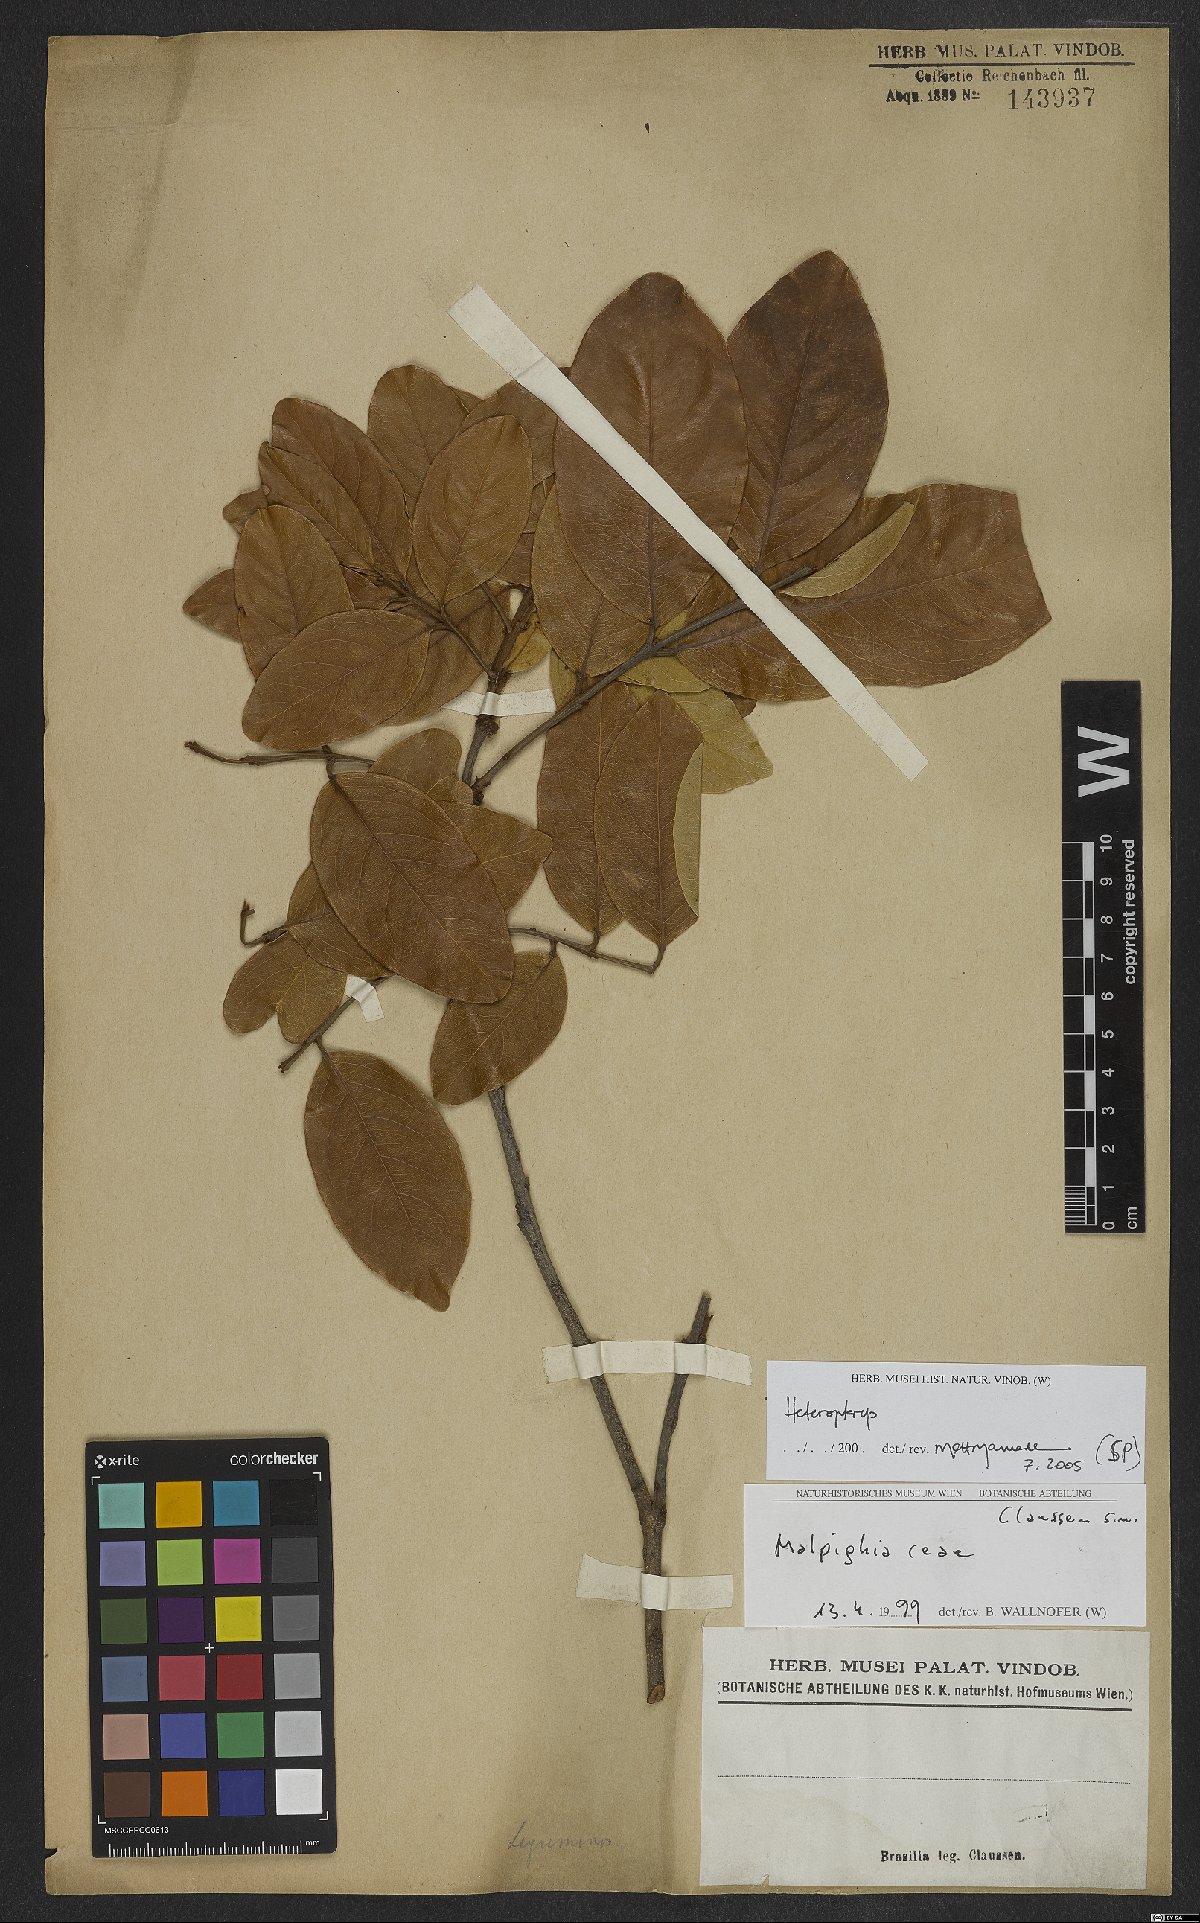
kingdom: Plantae
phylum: Tracheophyta
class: Magnoliopsida
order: Malpighiales
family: Malpighiaceae
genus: Heteropterys
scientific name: Heteropterys
